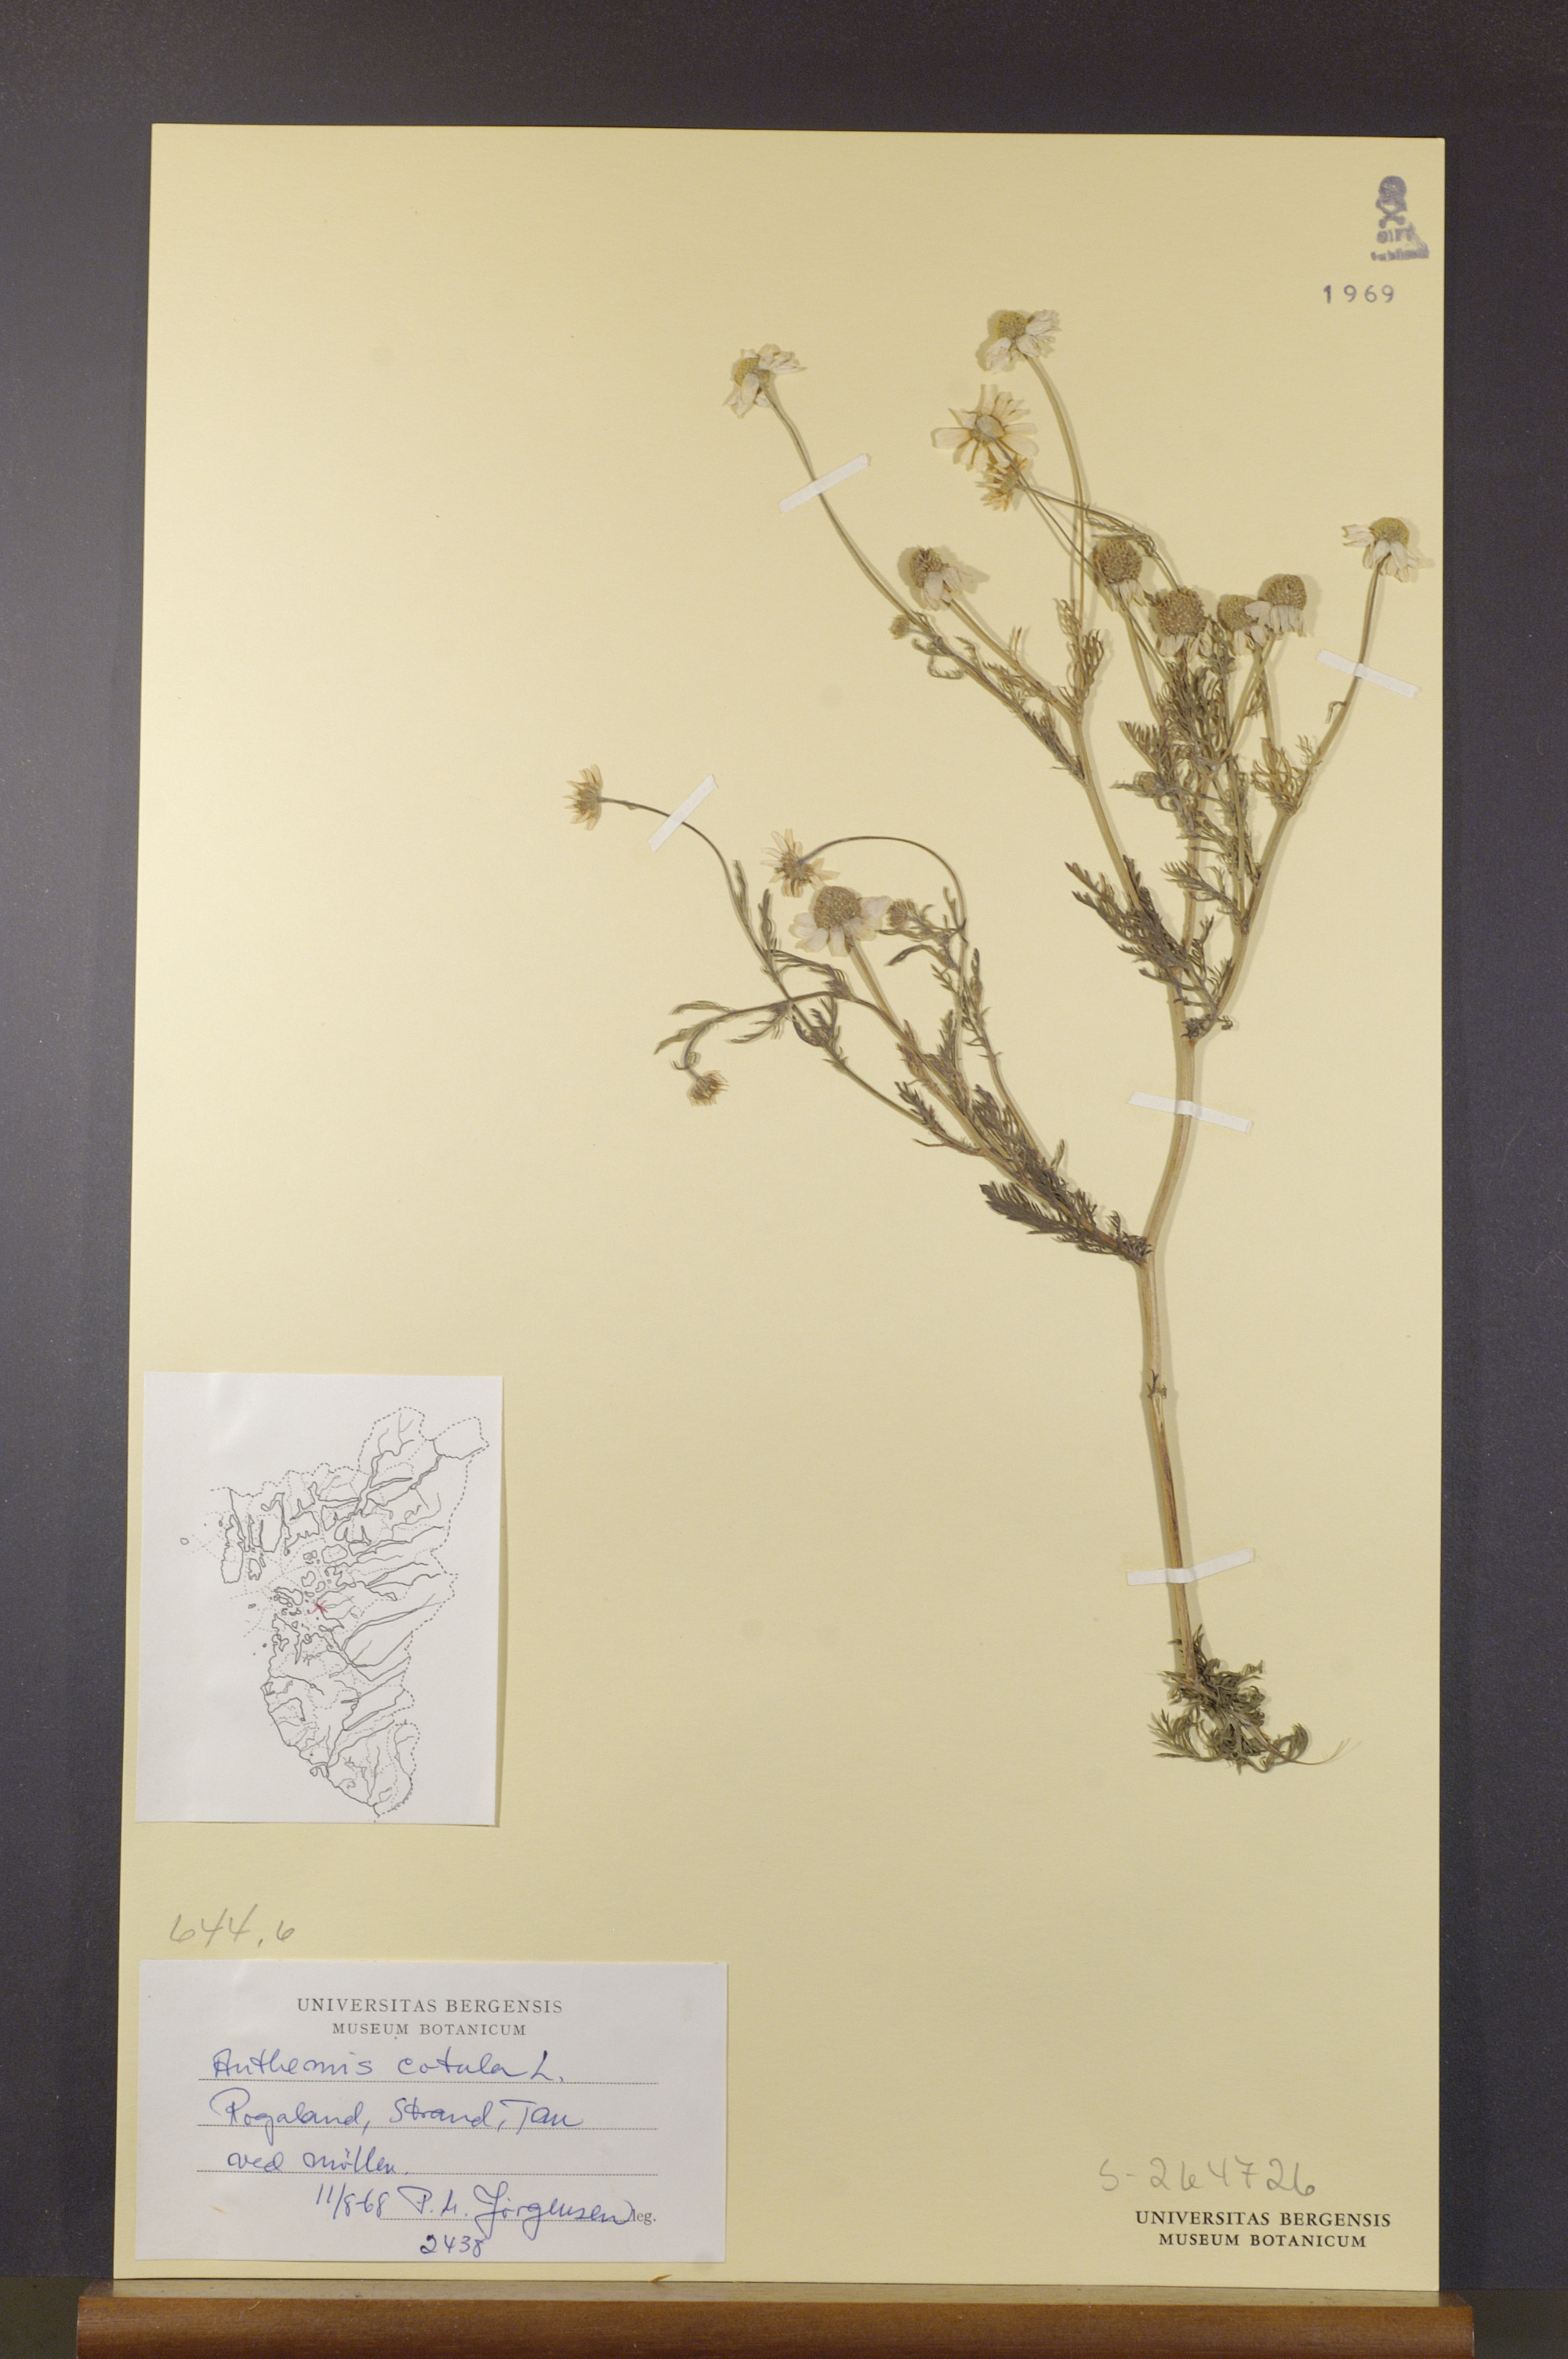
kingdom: Plantae
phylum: Tracheophyta
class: Magnoliopsida
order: Asterales
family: Asteraceae
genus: Anthemis
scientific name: Anthemis cotula
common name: Stinking chamomile
